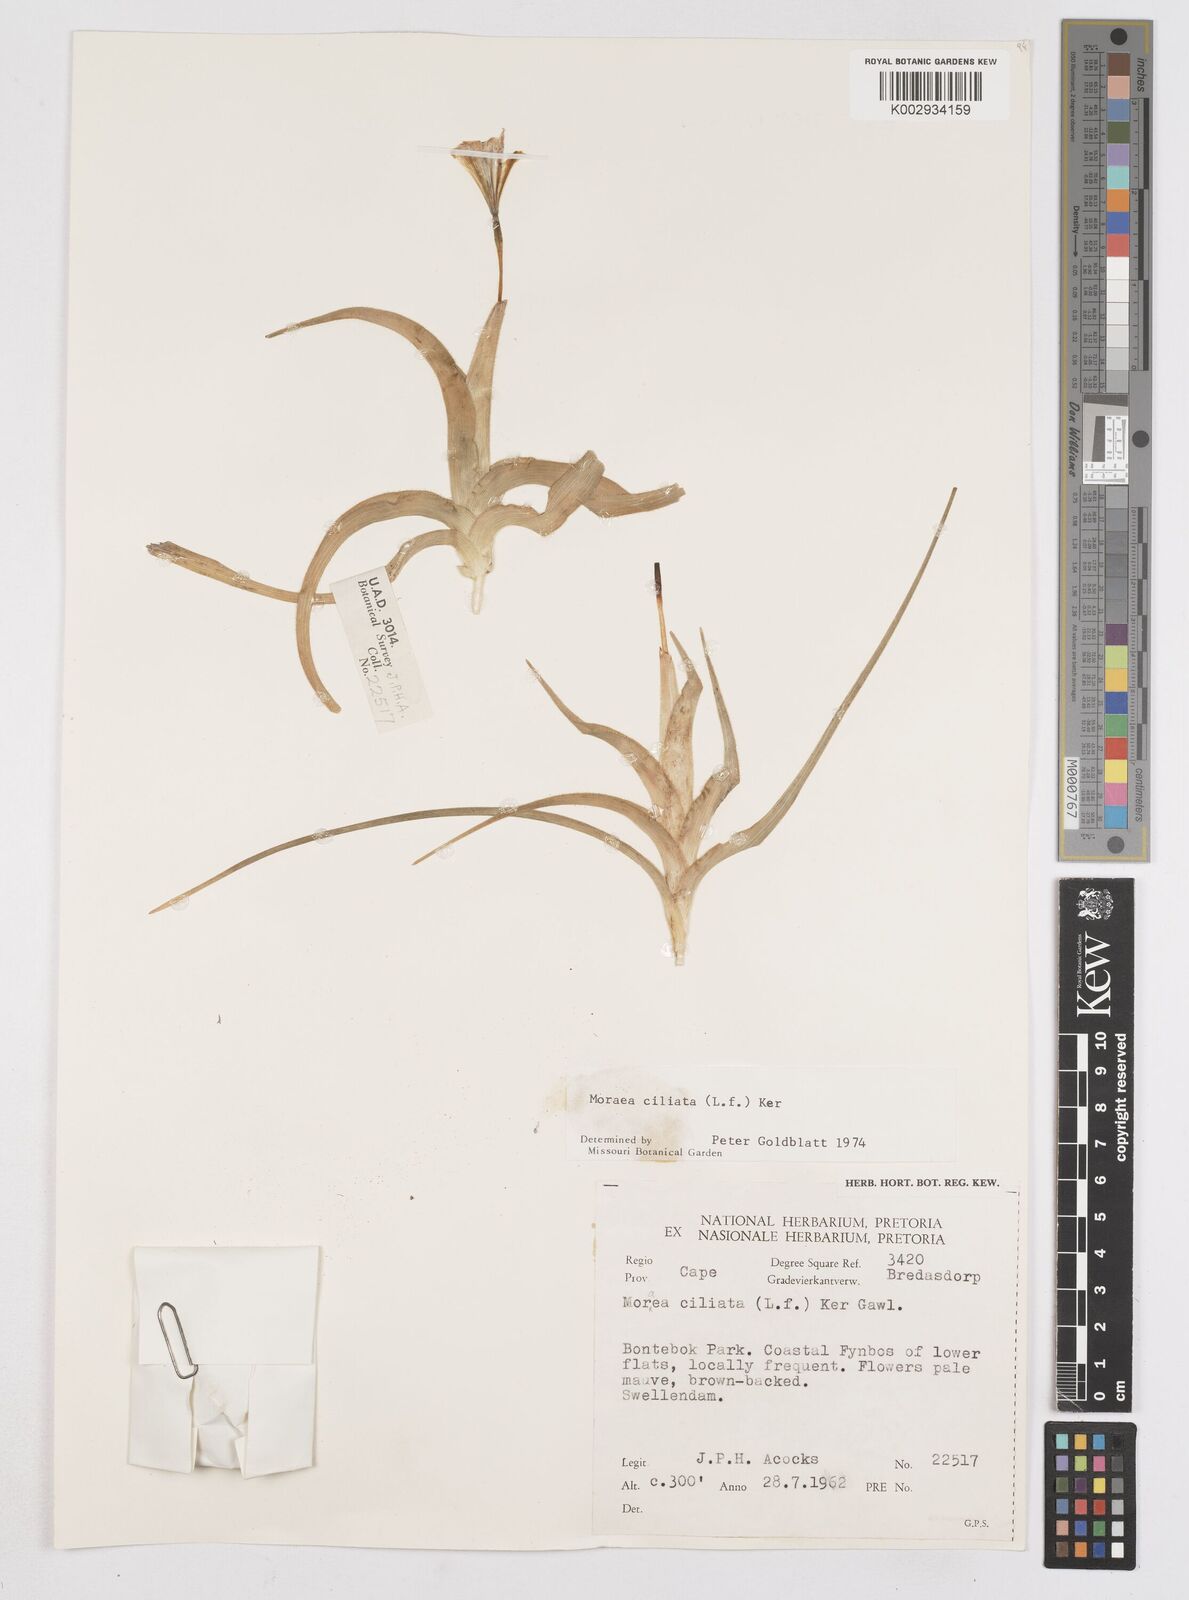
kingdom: Plantae
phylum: Tracheophyta
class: Liliopsida
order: Asparagales
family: Iridaceae
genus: Moraea
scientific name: Moraea ciliata
